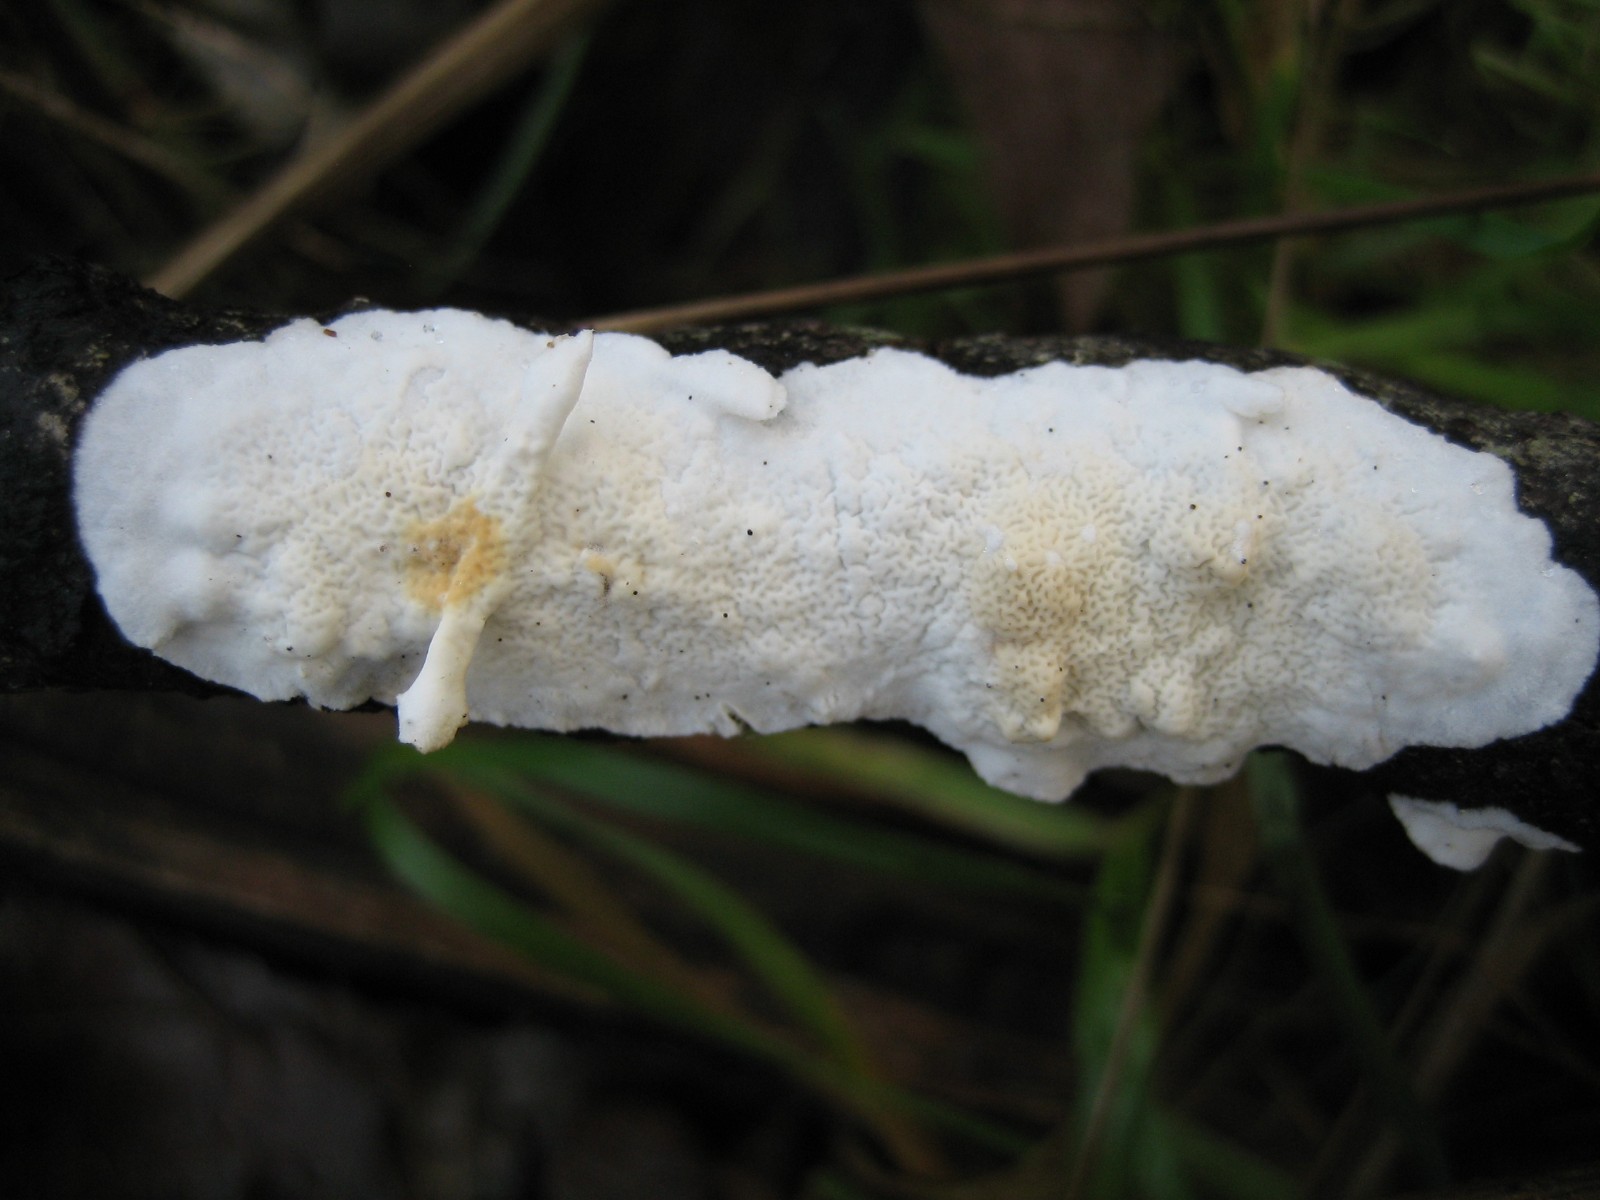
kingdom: Fungi
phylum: Basidiomycota
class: Agaricomycetes
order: Polyporales
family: Irpicaceae
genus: Byssomerulius
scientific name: Byssomerulius corium
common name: læder-åresvamp
